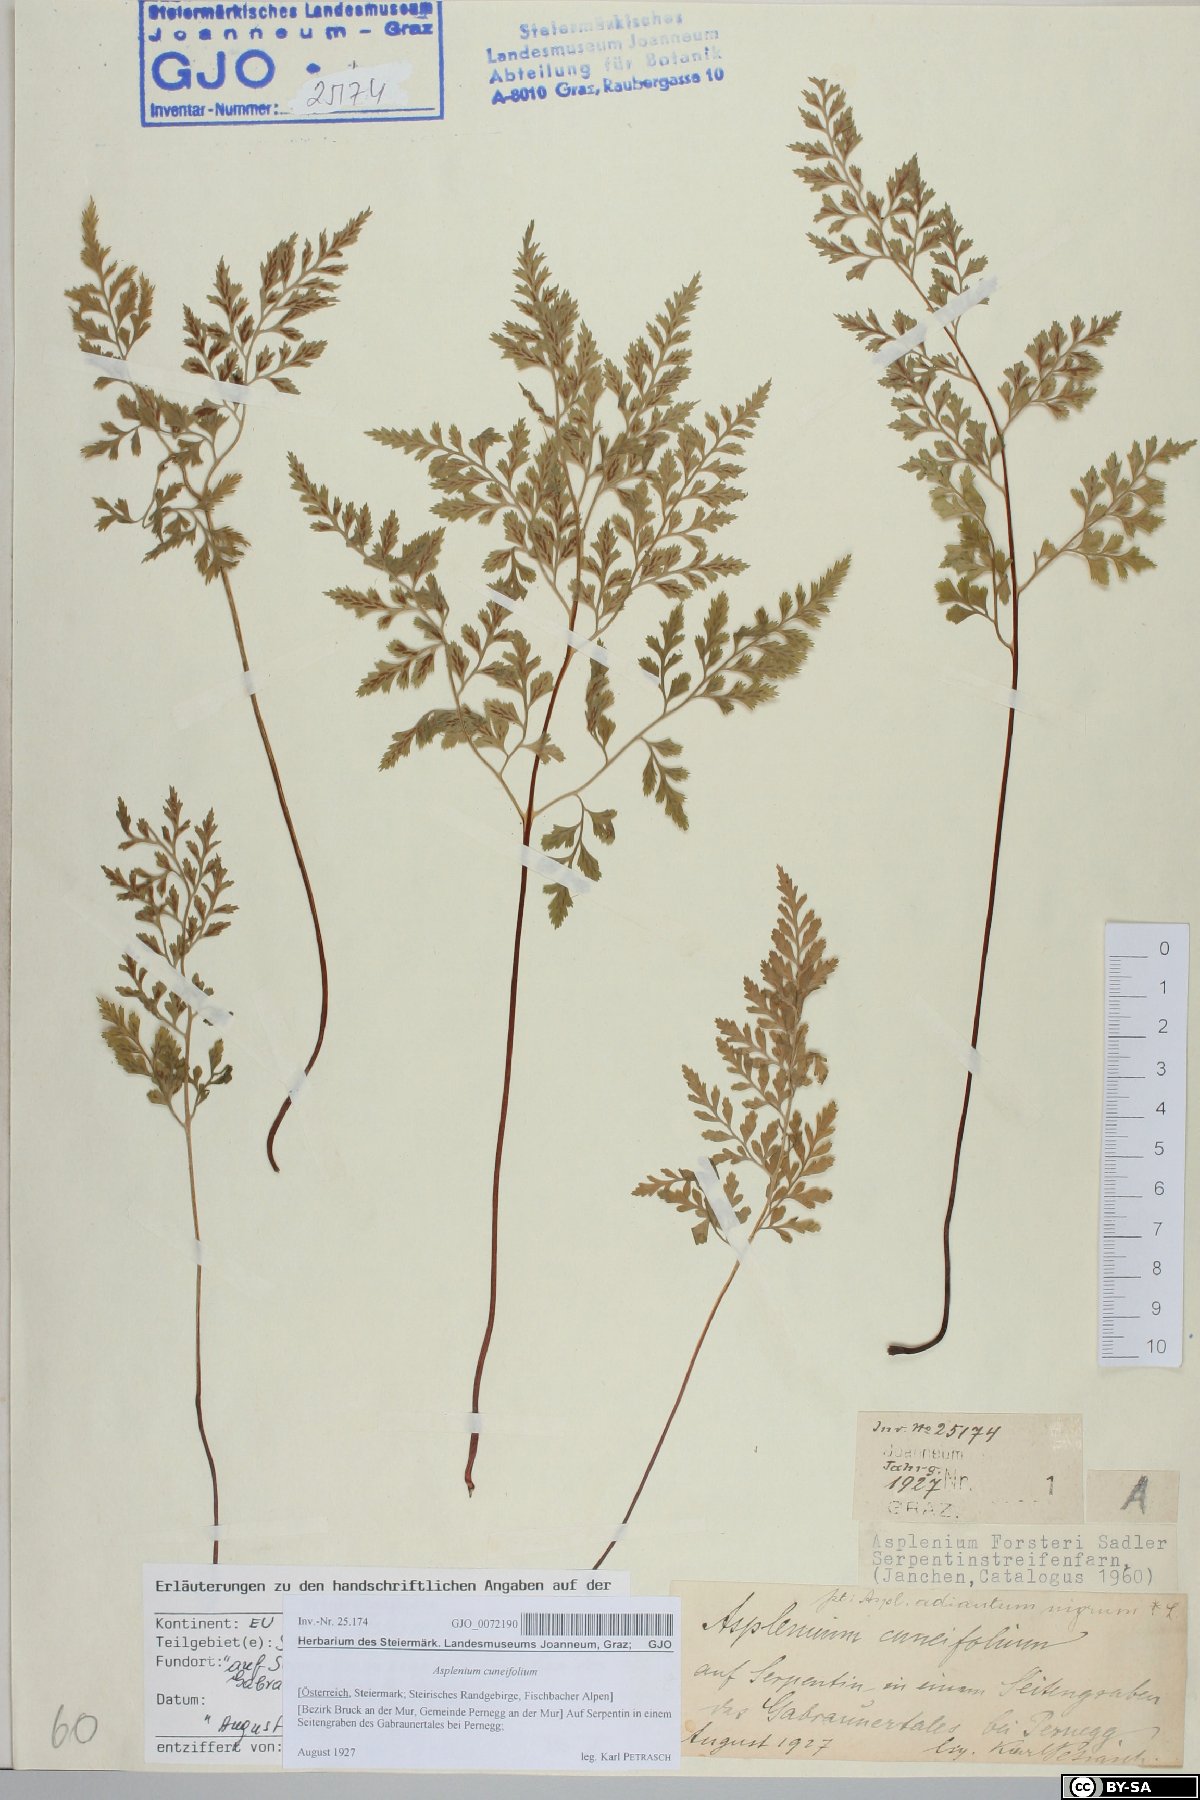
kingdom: Plantae
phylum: Tracheophyta
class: Polypodiopsida
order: Polypodiales
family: Aspleniaceae
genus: Asplenium
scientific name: Asplenium cuneifolium
